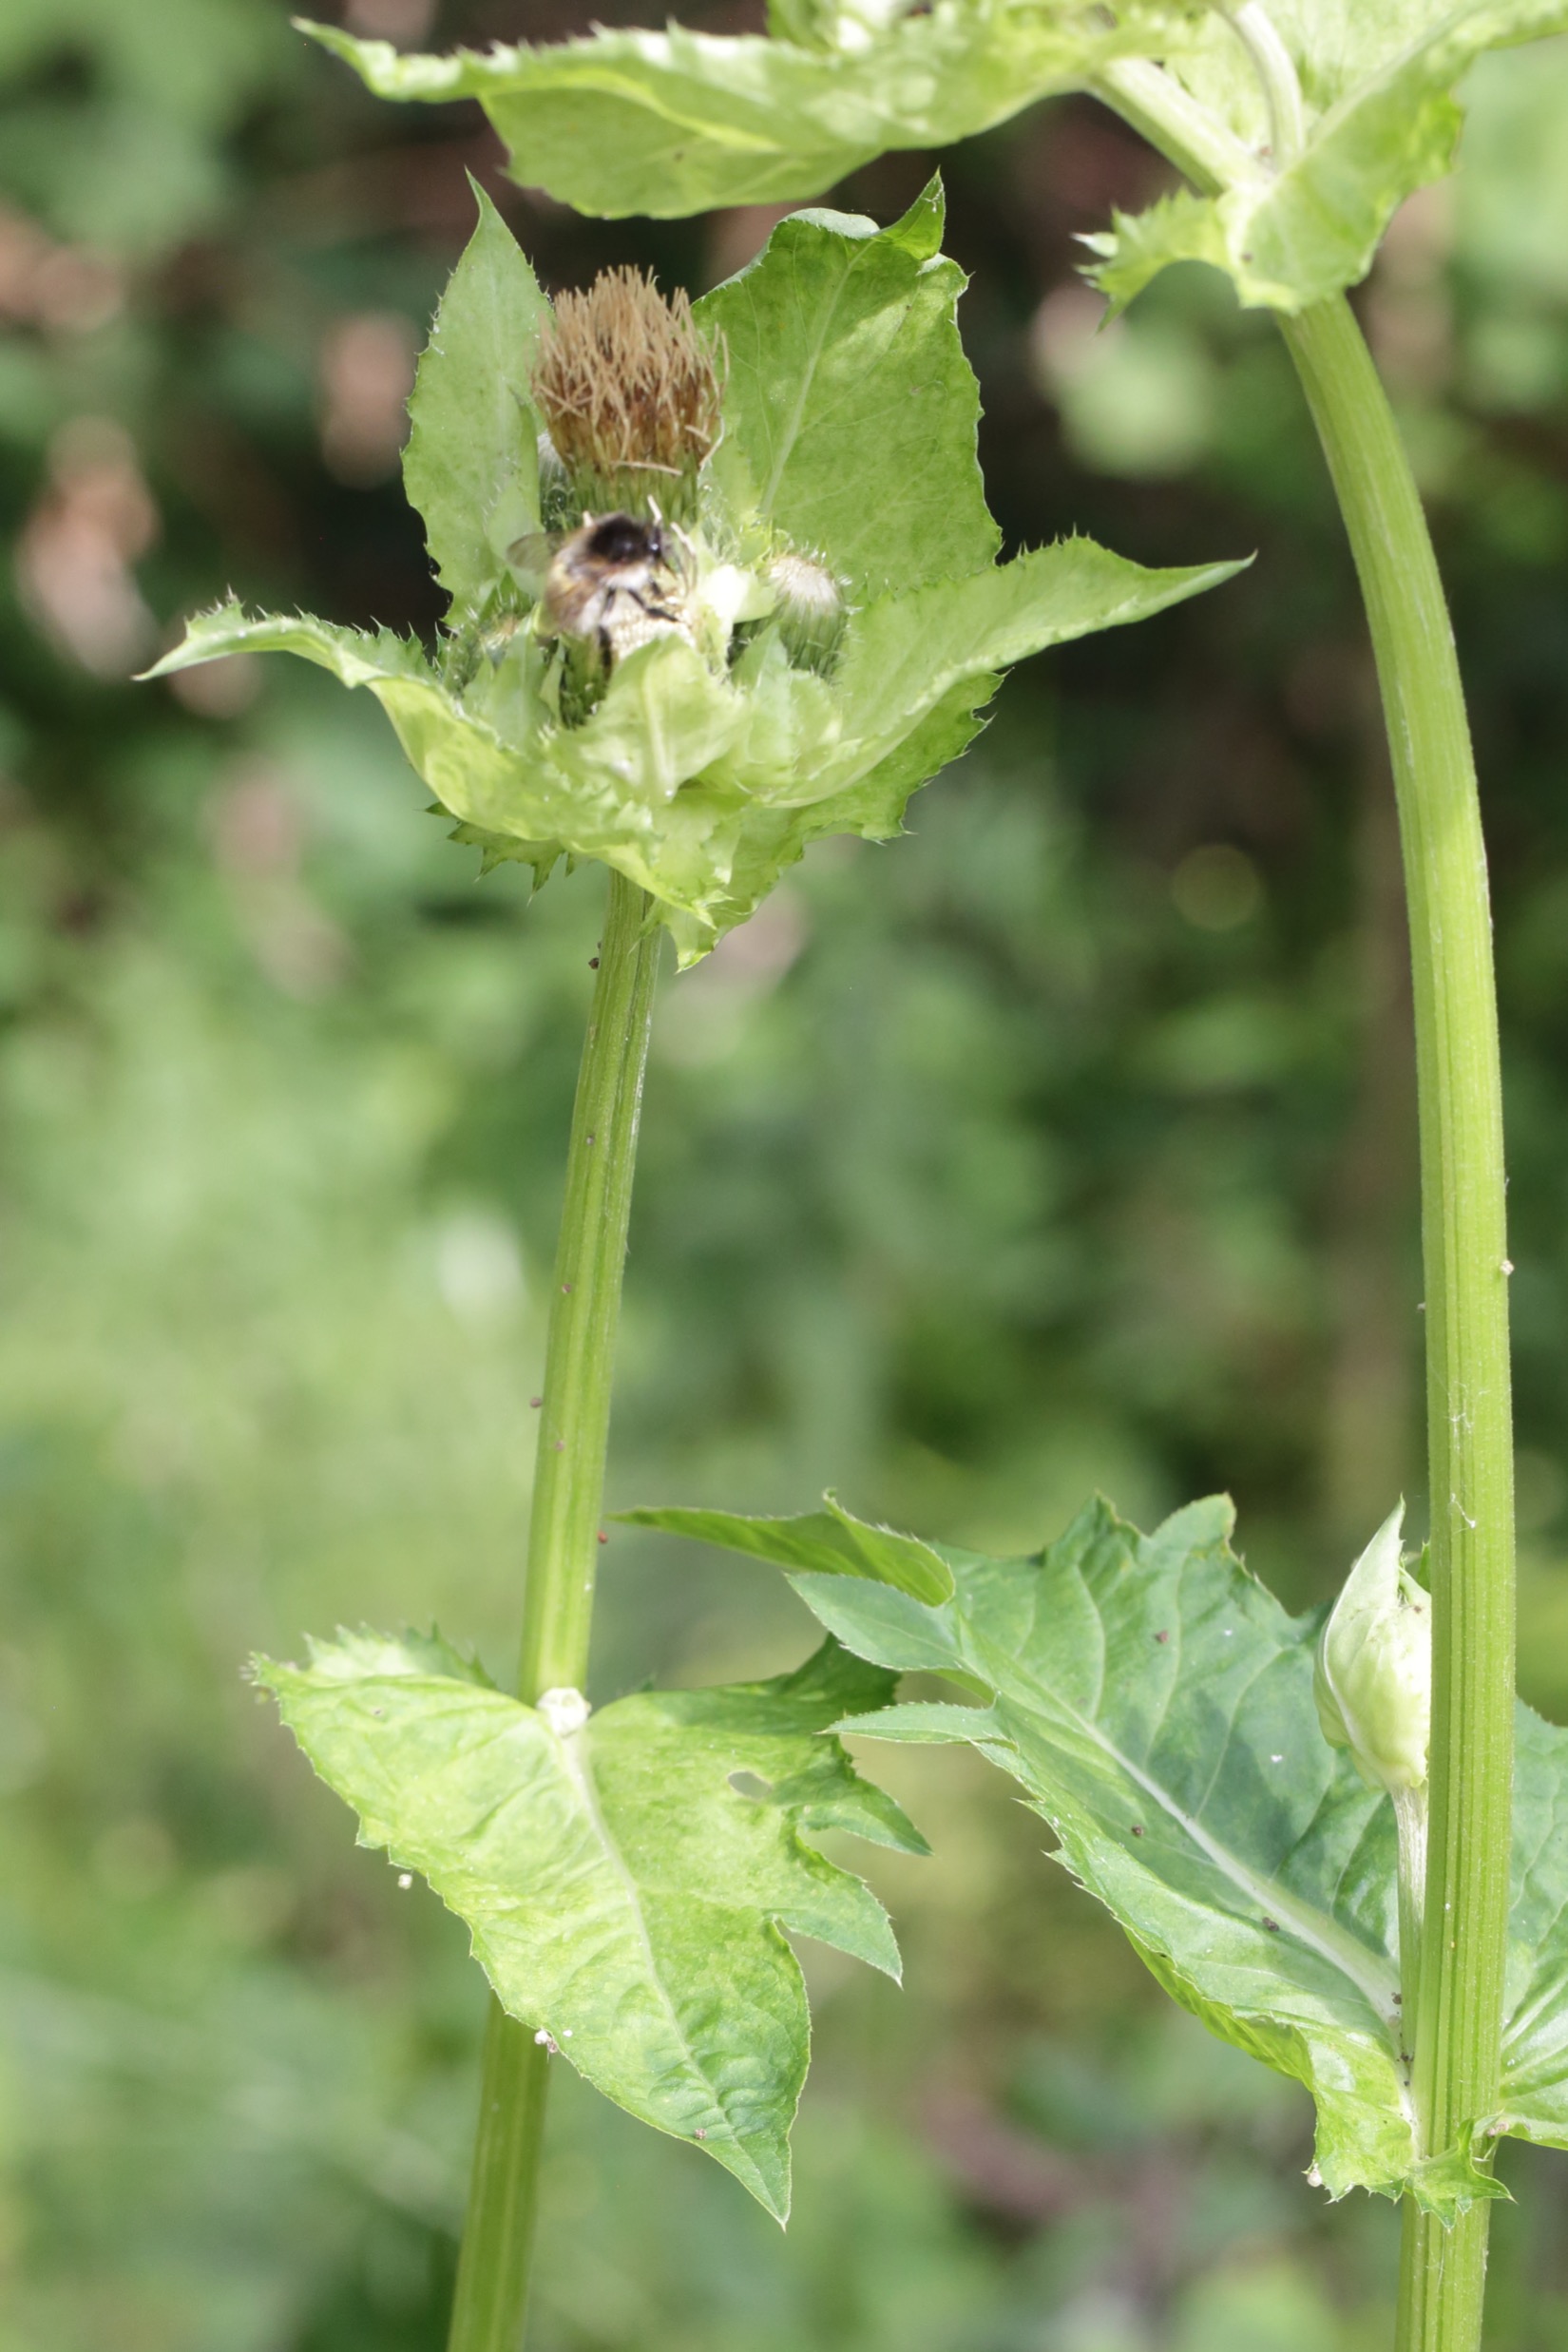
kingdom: Plantae
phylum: Tracheophyta
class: Magnoliopsida
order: Asterales
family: Asteraceae
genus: Cirsium
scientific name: Cirsium oleraceum
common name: Kål-tidsel
